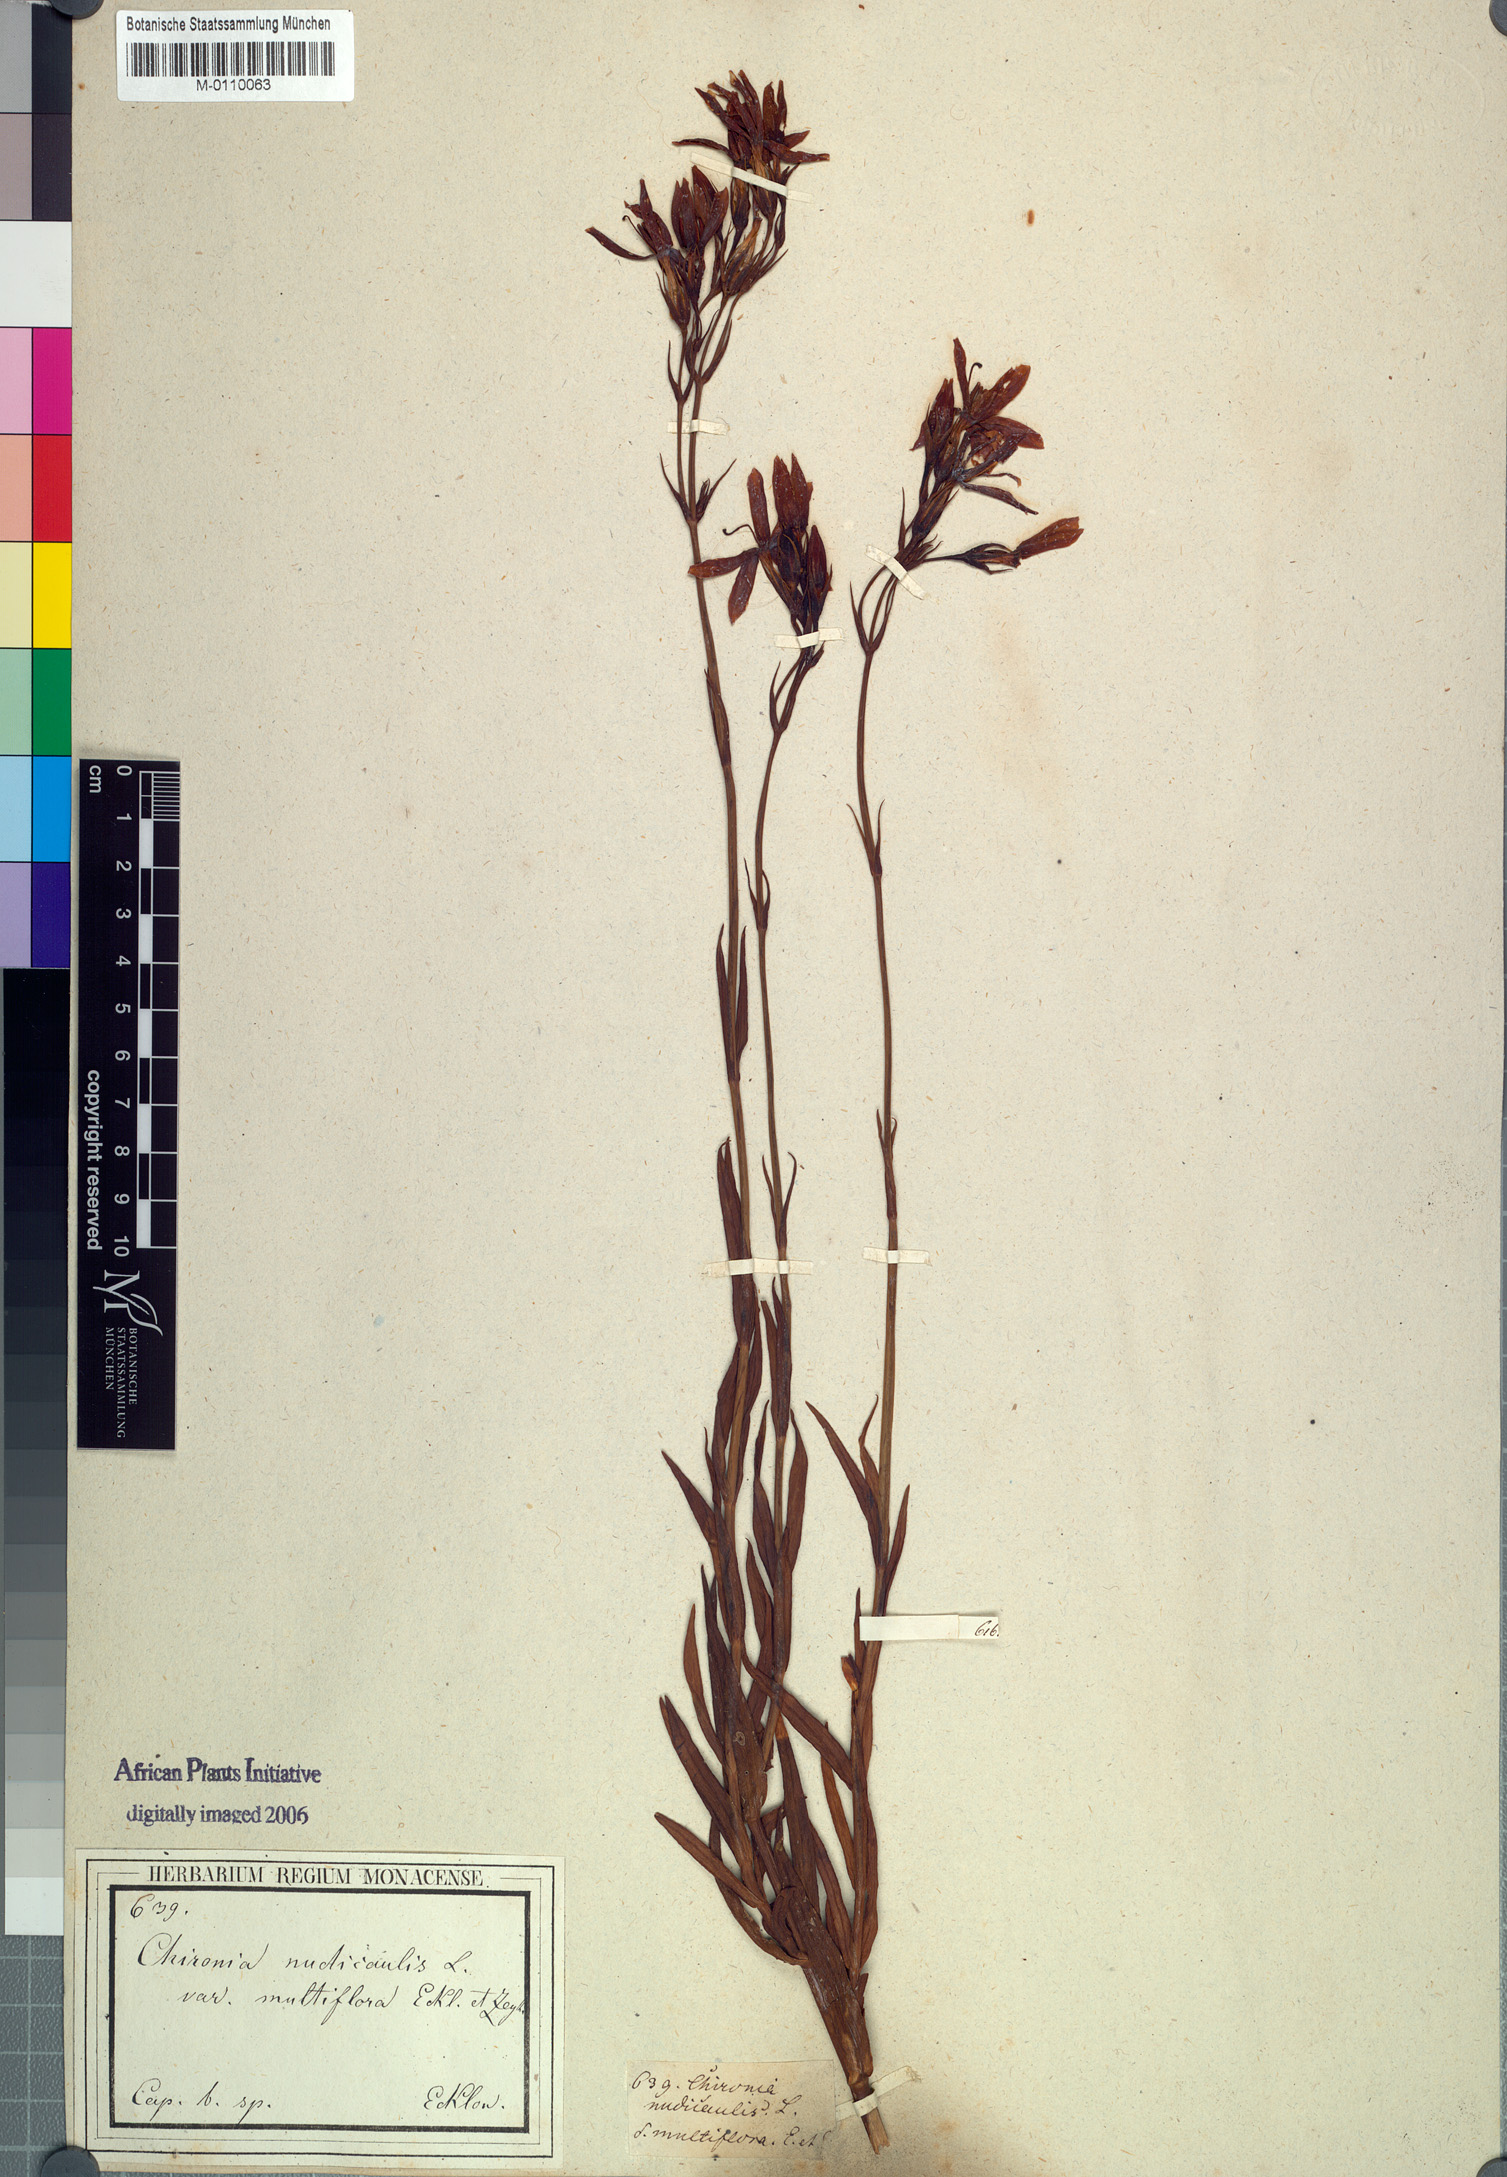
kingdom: Plantae
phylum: Tracheophyta
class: Magnoliopsida
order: Gentianales
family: Gentianaceae
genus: Chironia
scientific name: Chironia jasminoides
